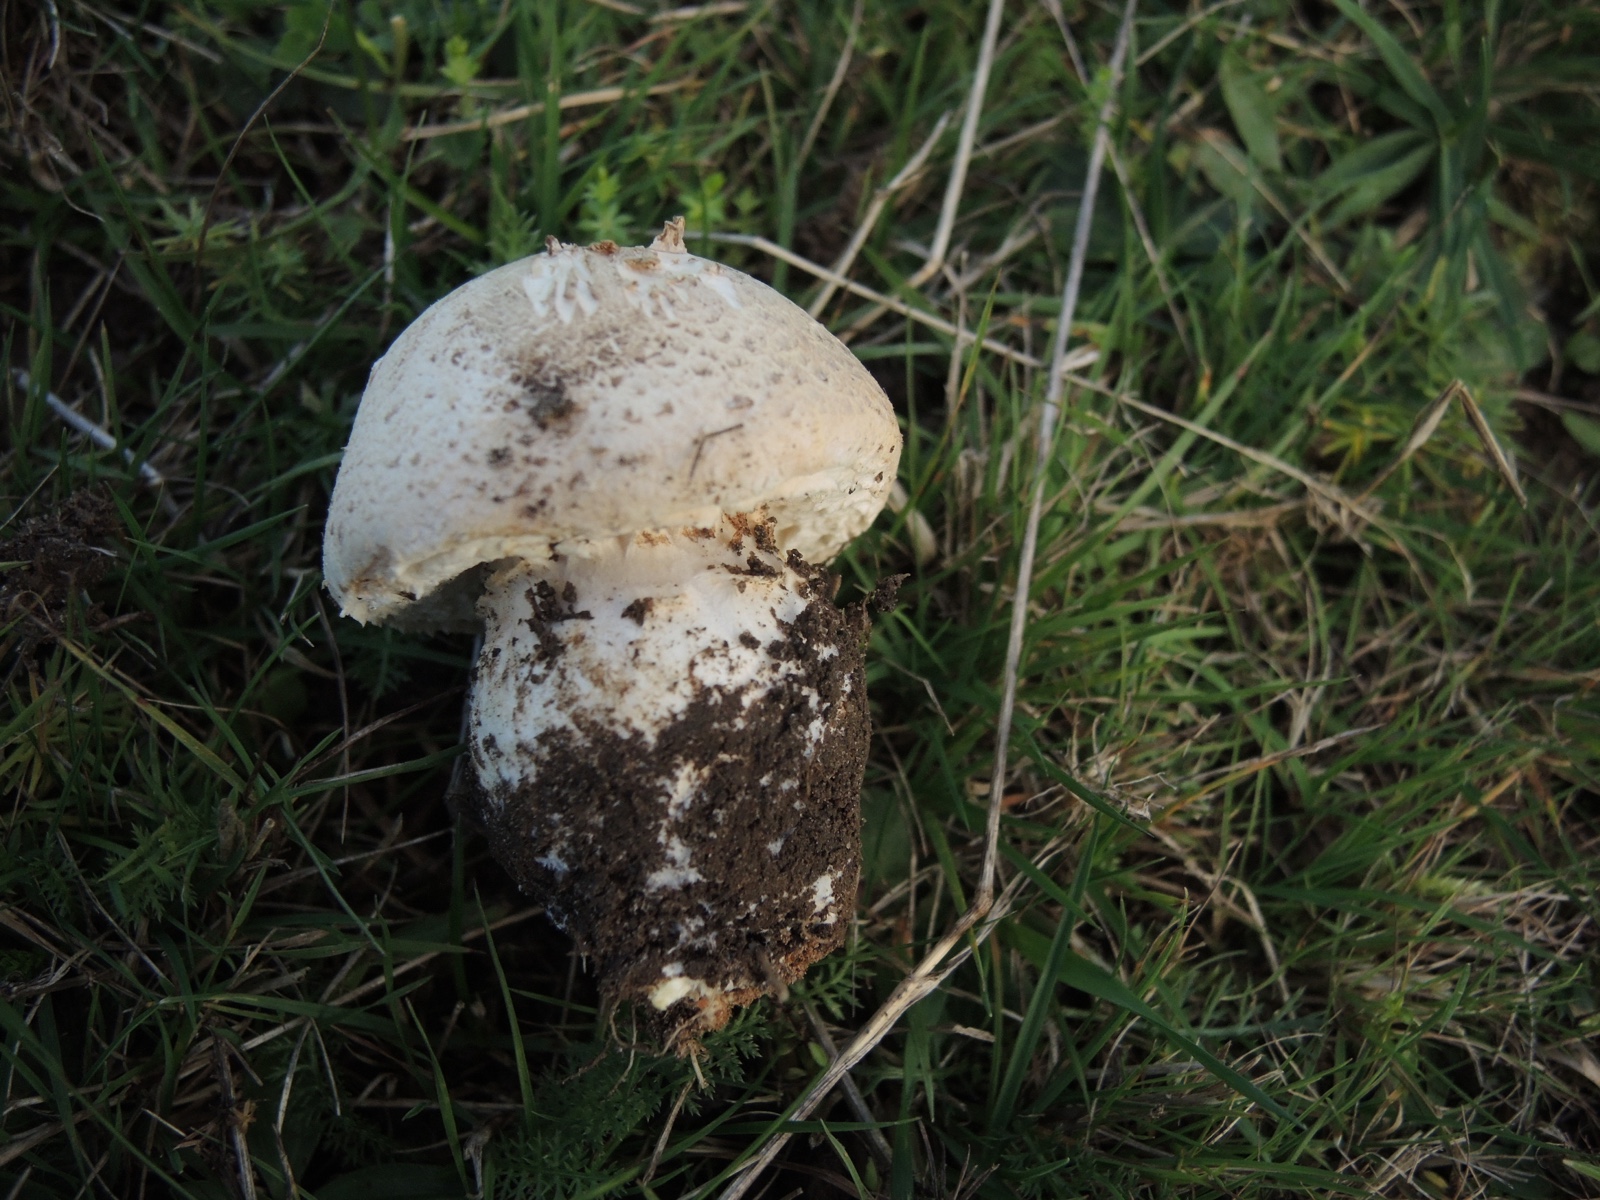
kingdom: Fungi
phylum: Basidiomycota
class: Agaricomycetes
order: Agaricales
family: Agaricaceae
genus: Agaricus
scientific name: Agaricus litoralis
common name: kyst-champignon
